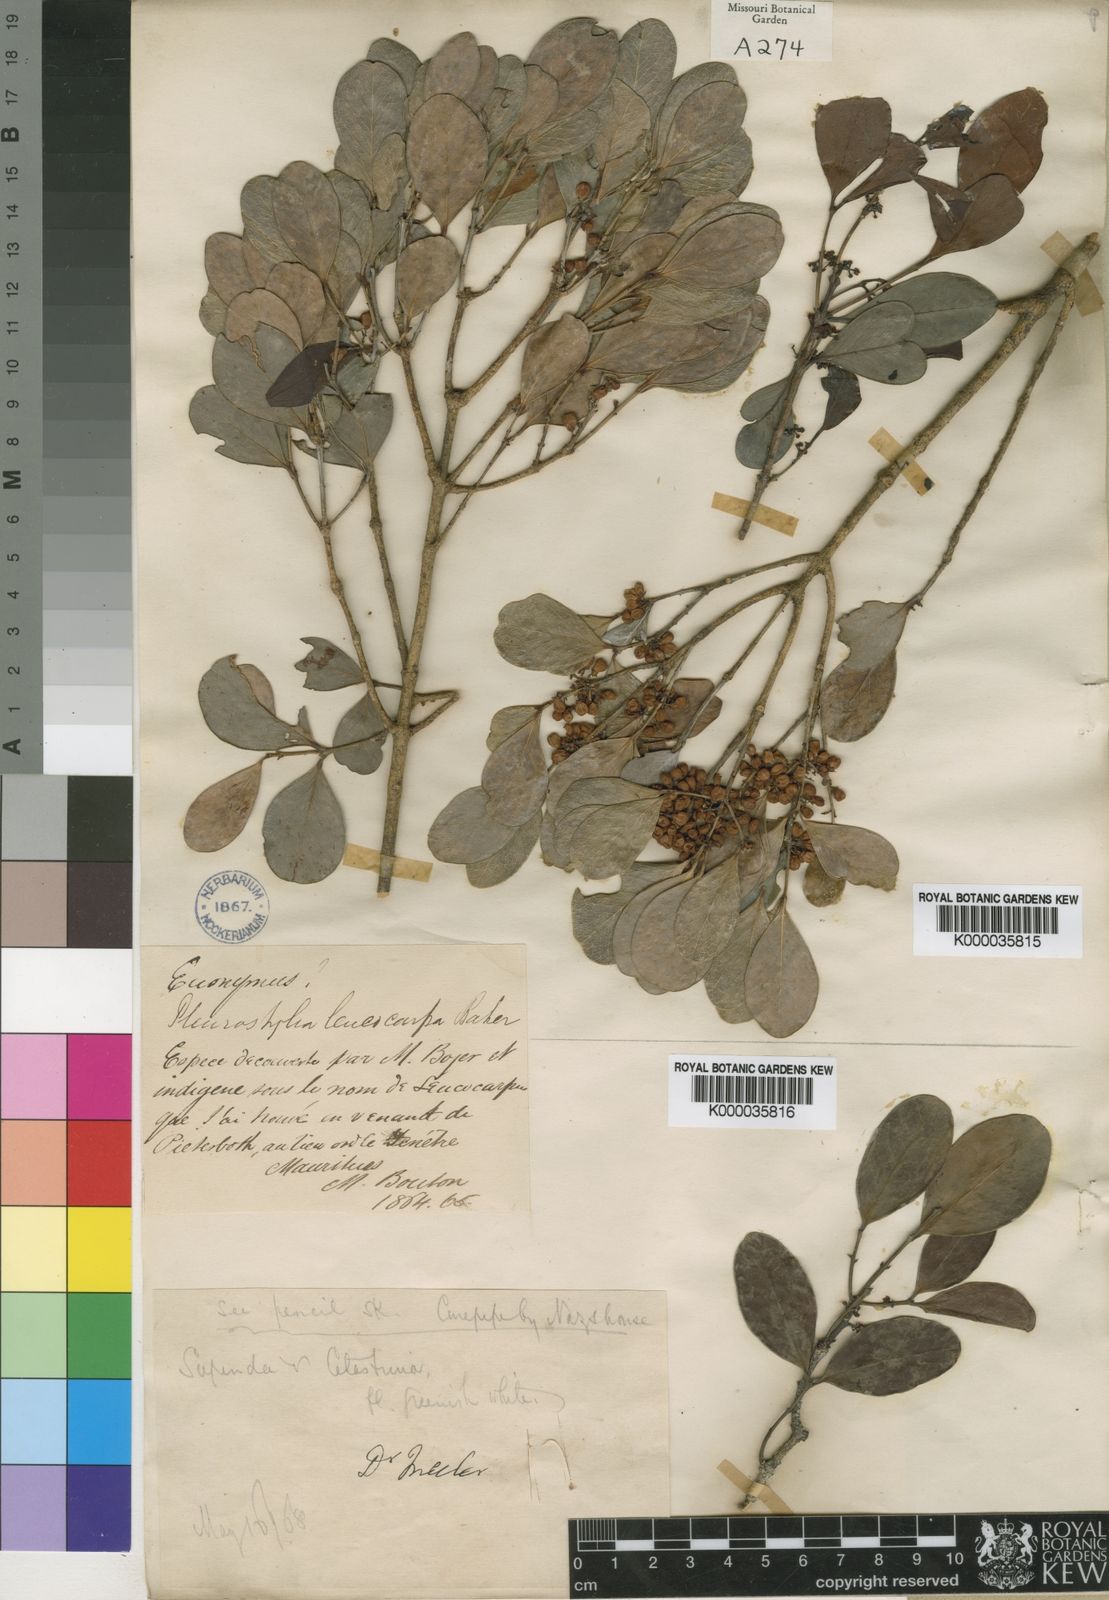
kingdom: Plantae
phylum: Tracheophyta
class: Magnoliopsida
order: Celastrales
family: Celastraceae
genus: Pleurostylia
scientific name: Pleurostylia leucocarpa
